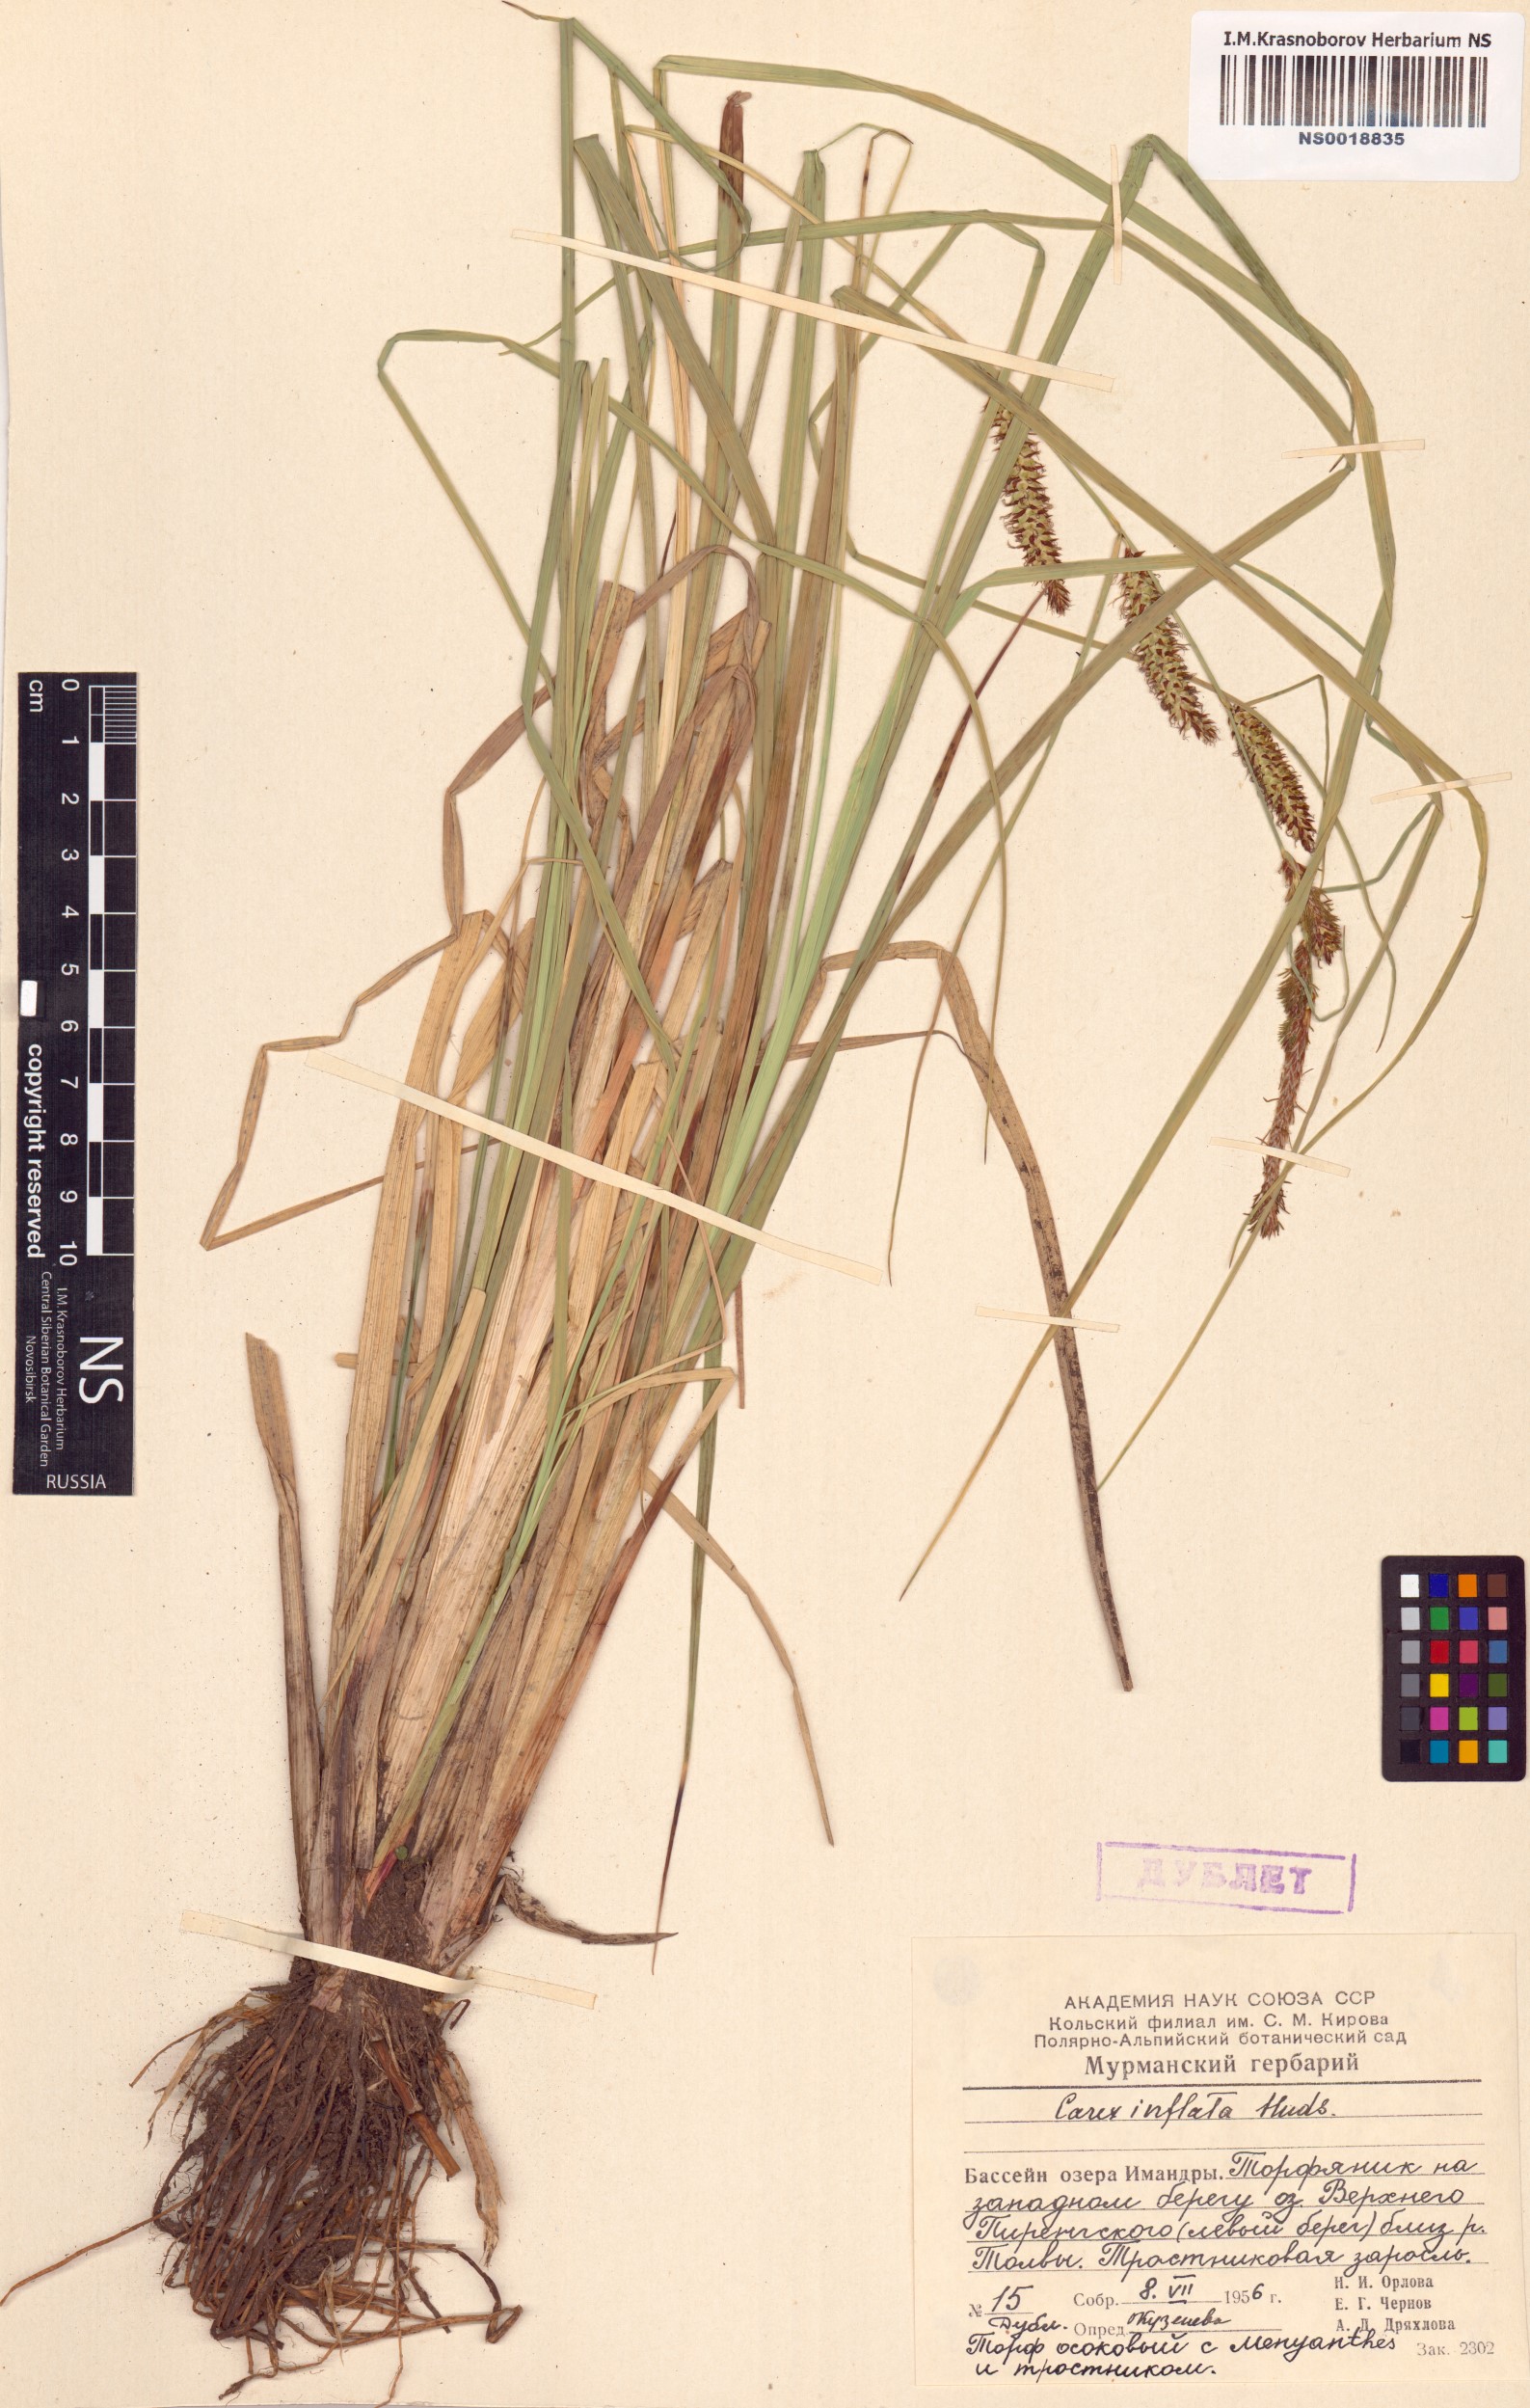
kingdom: Plantae
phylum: Tracheophyta
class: Liliopsida
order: Poales
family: Cyperaceae
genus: Carex
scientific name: Carex rostrata
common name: Bottle sedge
